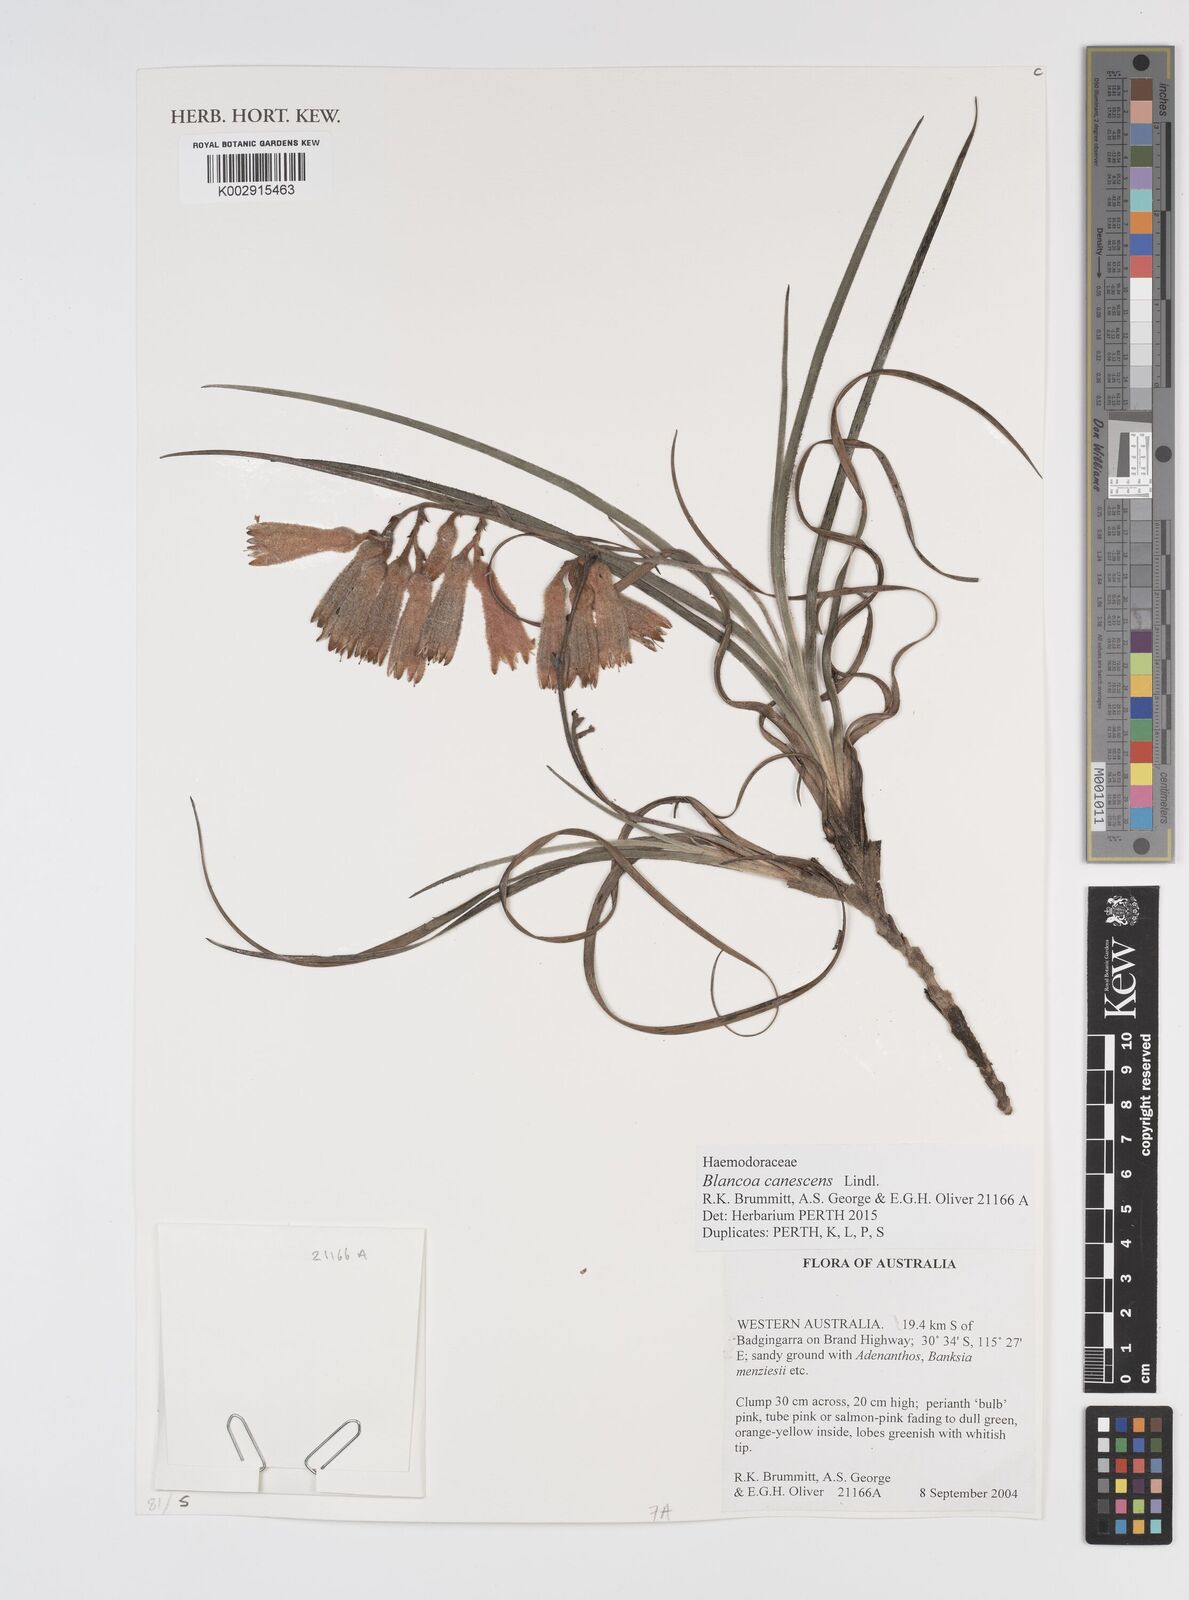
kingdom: Plantae
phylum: Tracheophyta
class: Liliopsida
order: Commelinales
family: Haemodoraceae
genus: Blancoa
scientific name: Blancoa canescens
